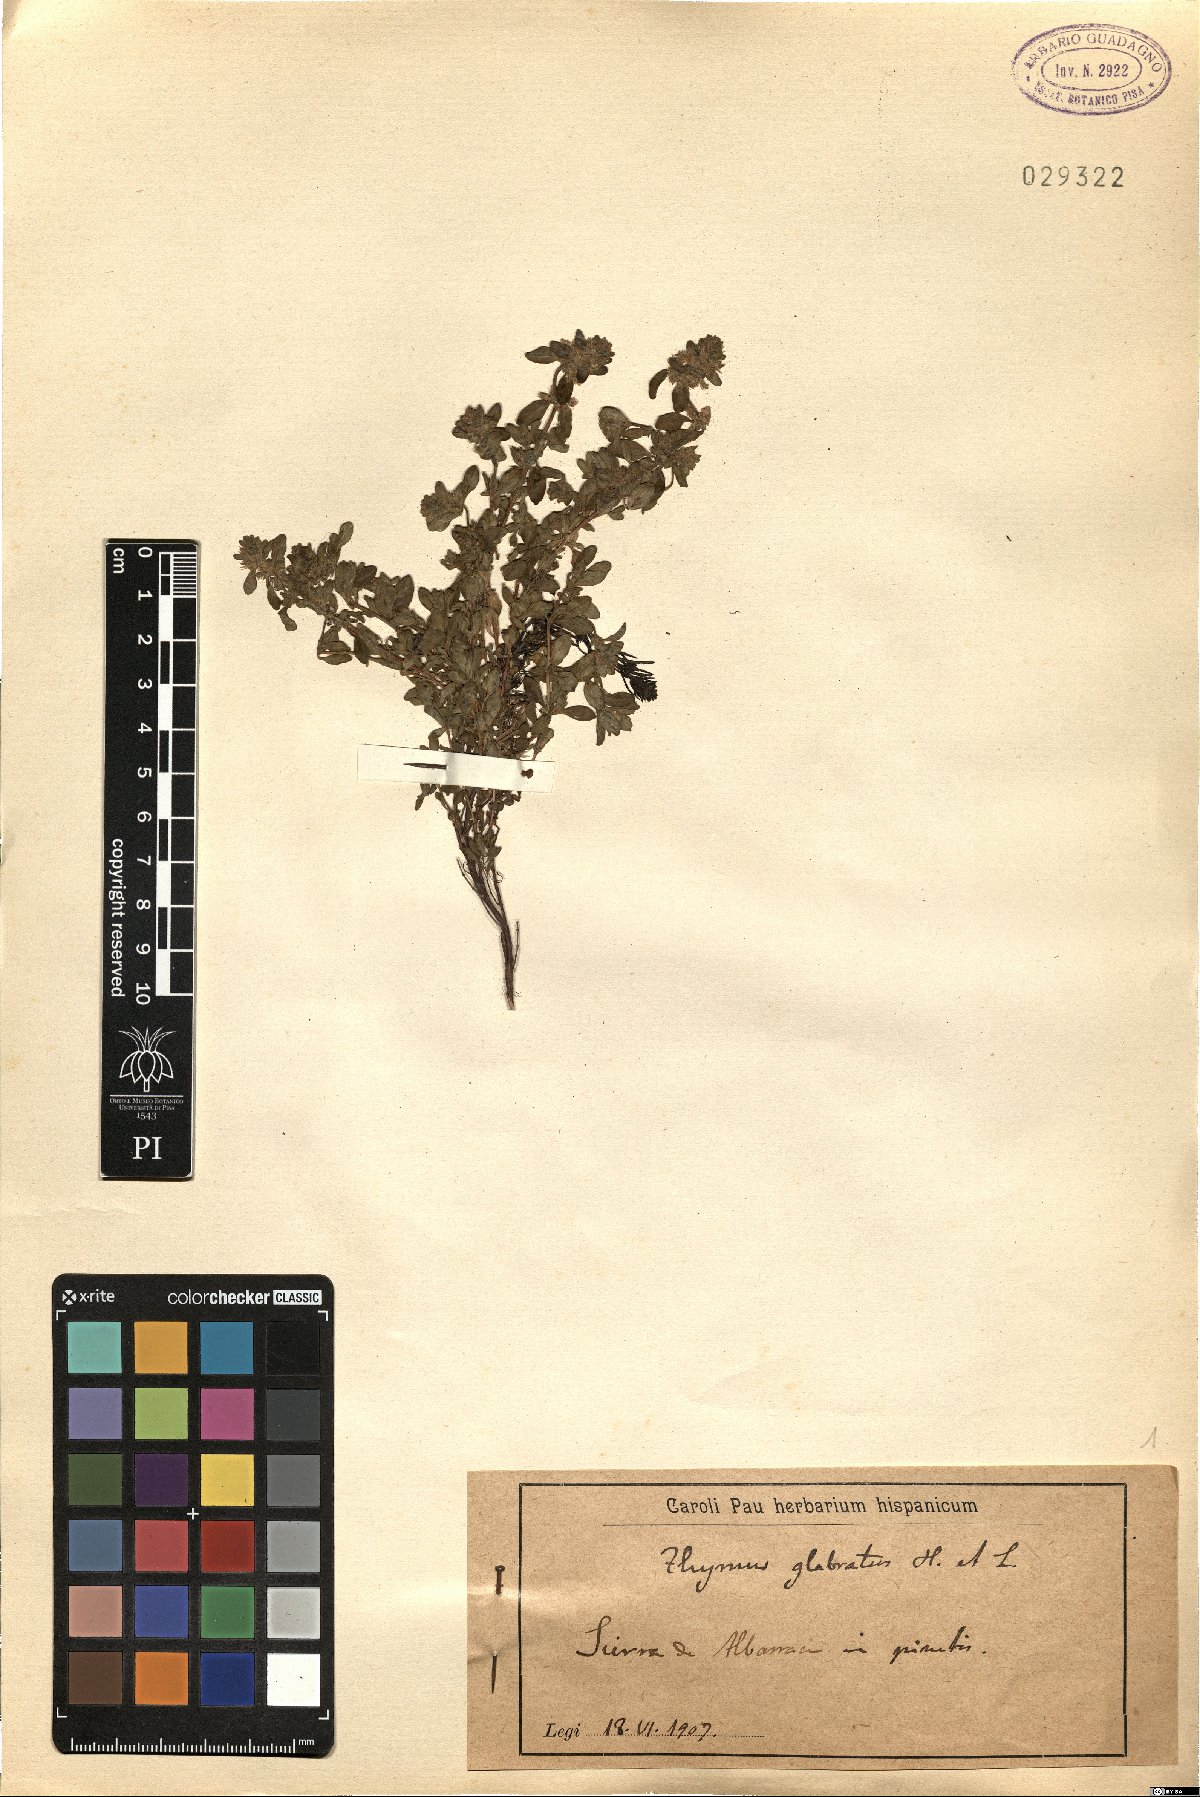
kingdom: Plantae
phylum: Tracheophyta
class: Magnoliopsida
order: Lamiales
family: Lamiaceae
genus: Thymus
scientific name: Thymus pulegioides
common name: Large thyme
